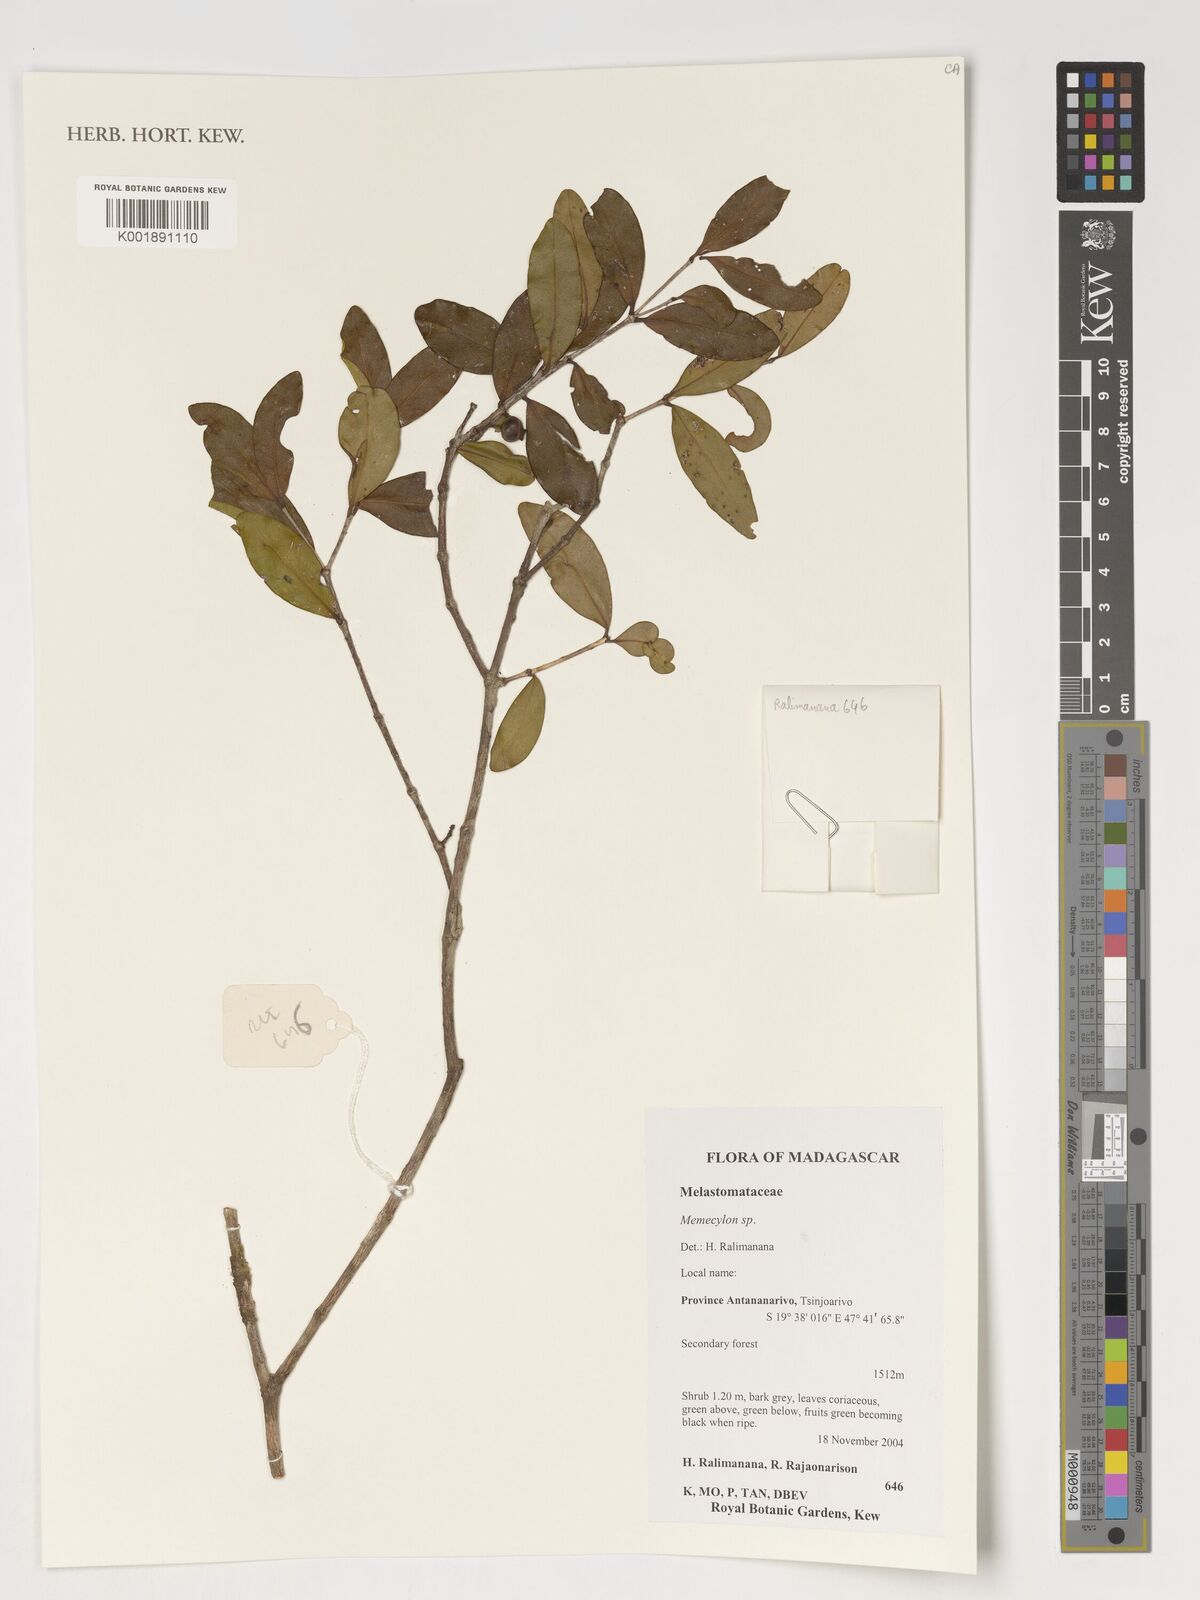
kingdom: Plantae
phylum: Tracheophyta
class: Magnoliopsida
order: Myrtales
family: Melastomataceae
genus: Memecylon
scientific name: Memecylon
